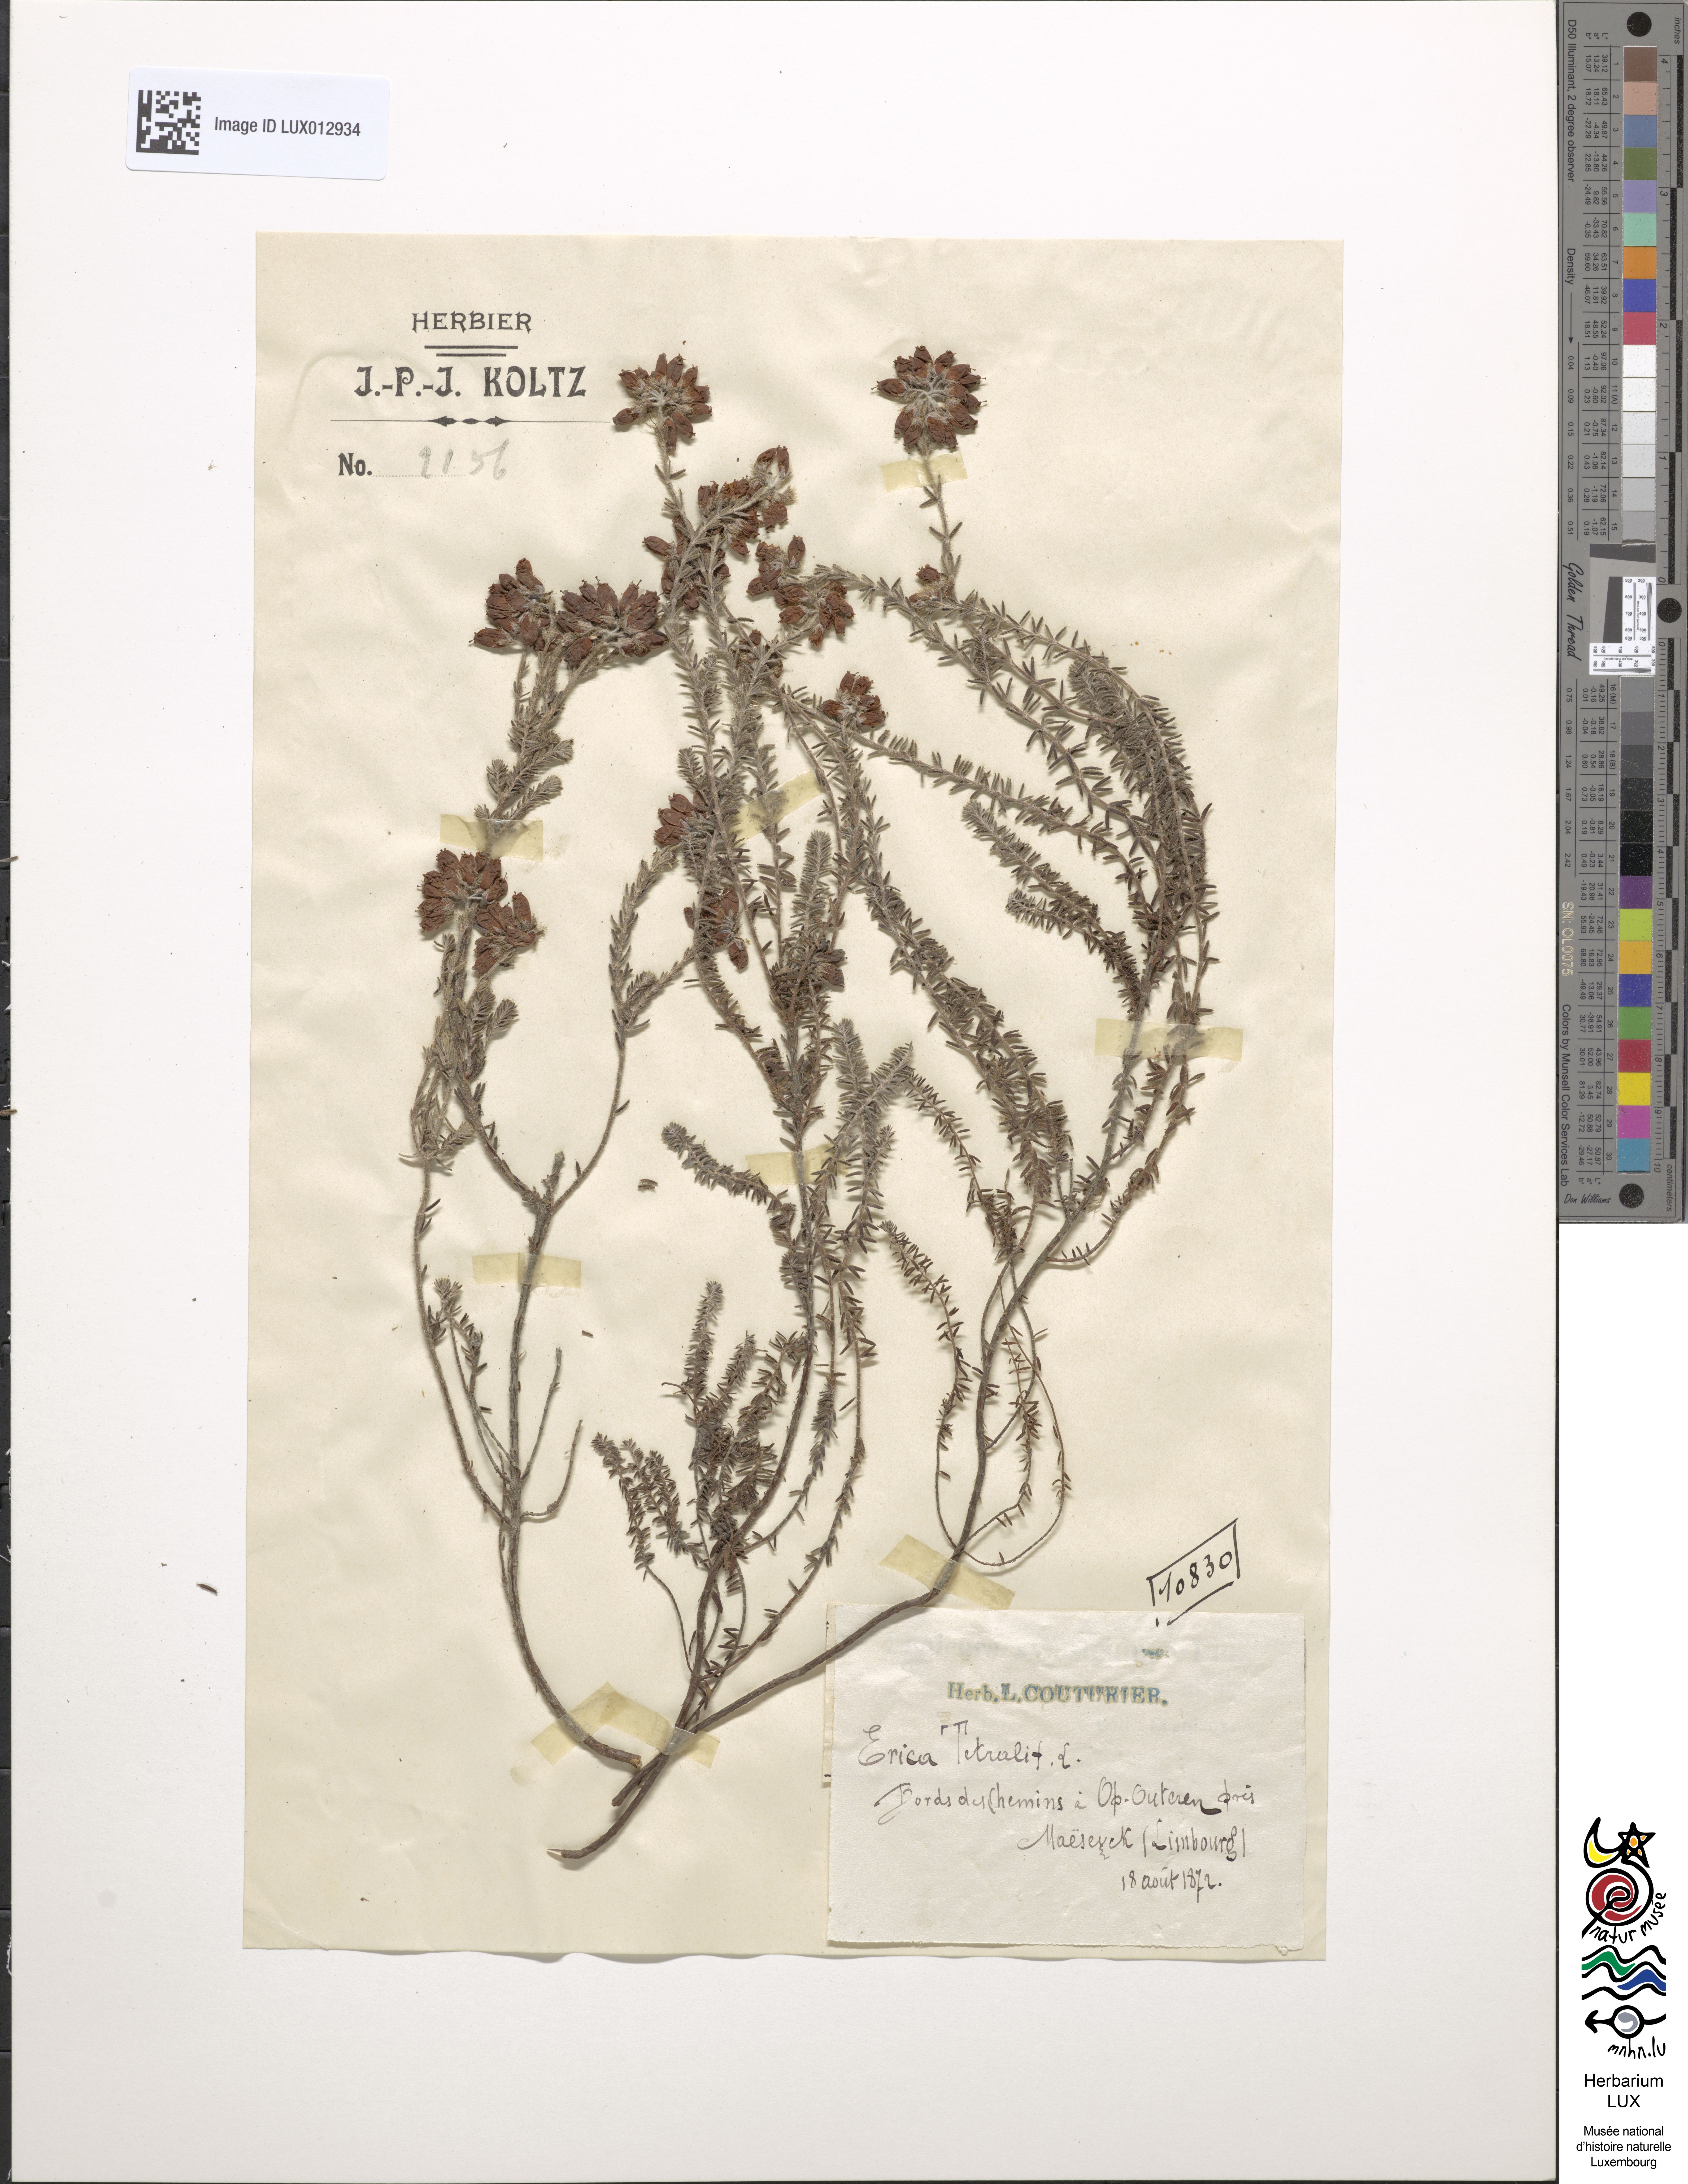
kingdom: Plantae
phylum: Tracheophyta
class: Magnoliopsida
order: Ericales
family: Ericaceae
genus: Erica
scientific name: Erica tetralix
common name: Cross-leaved heath
